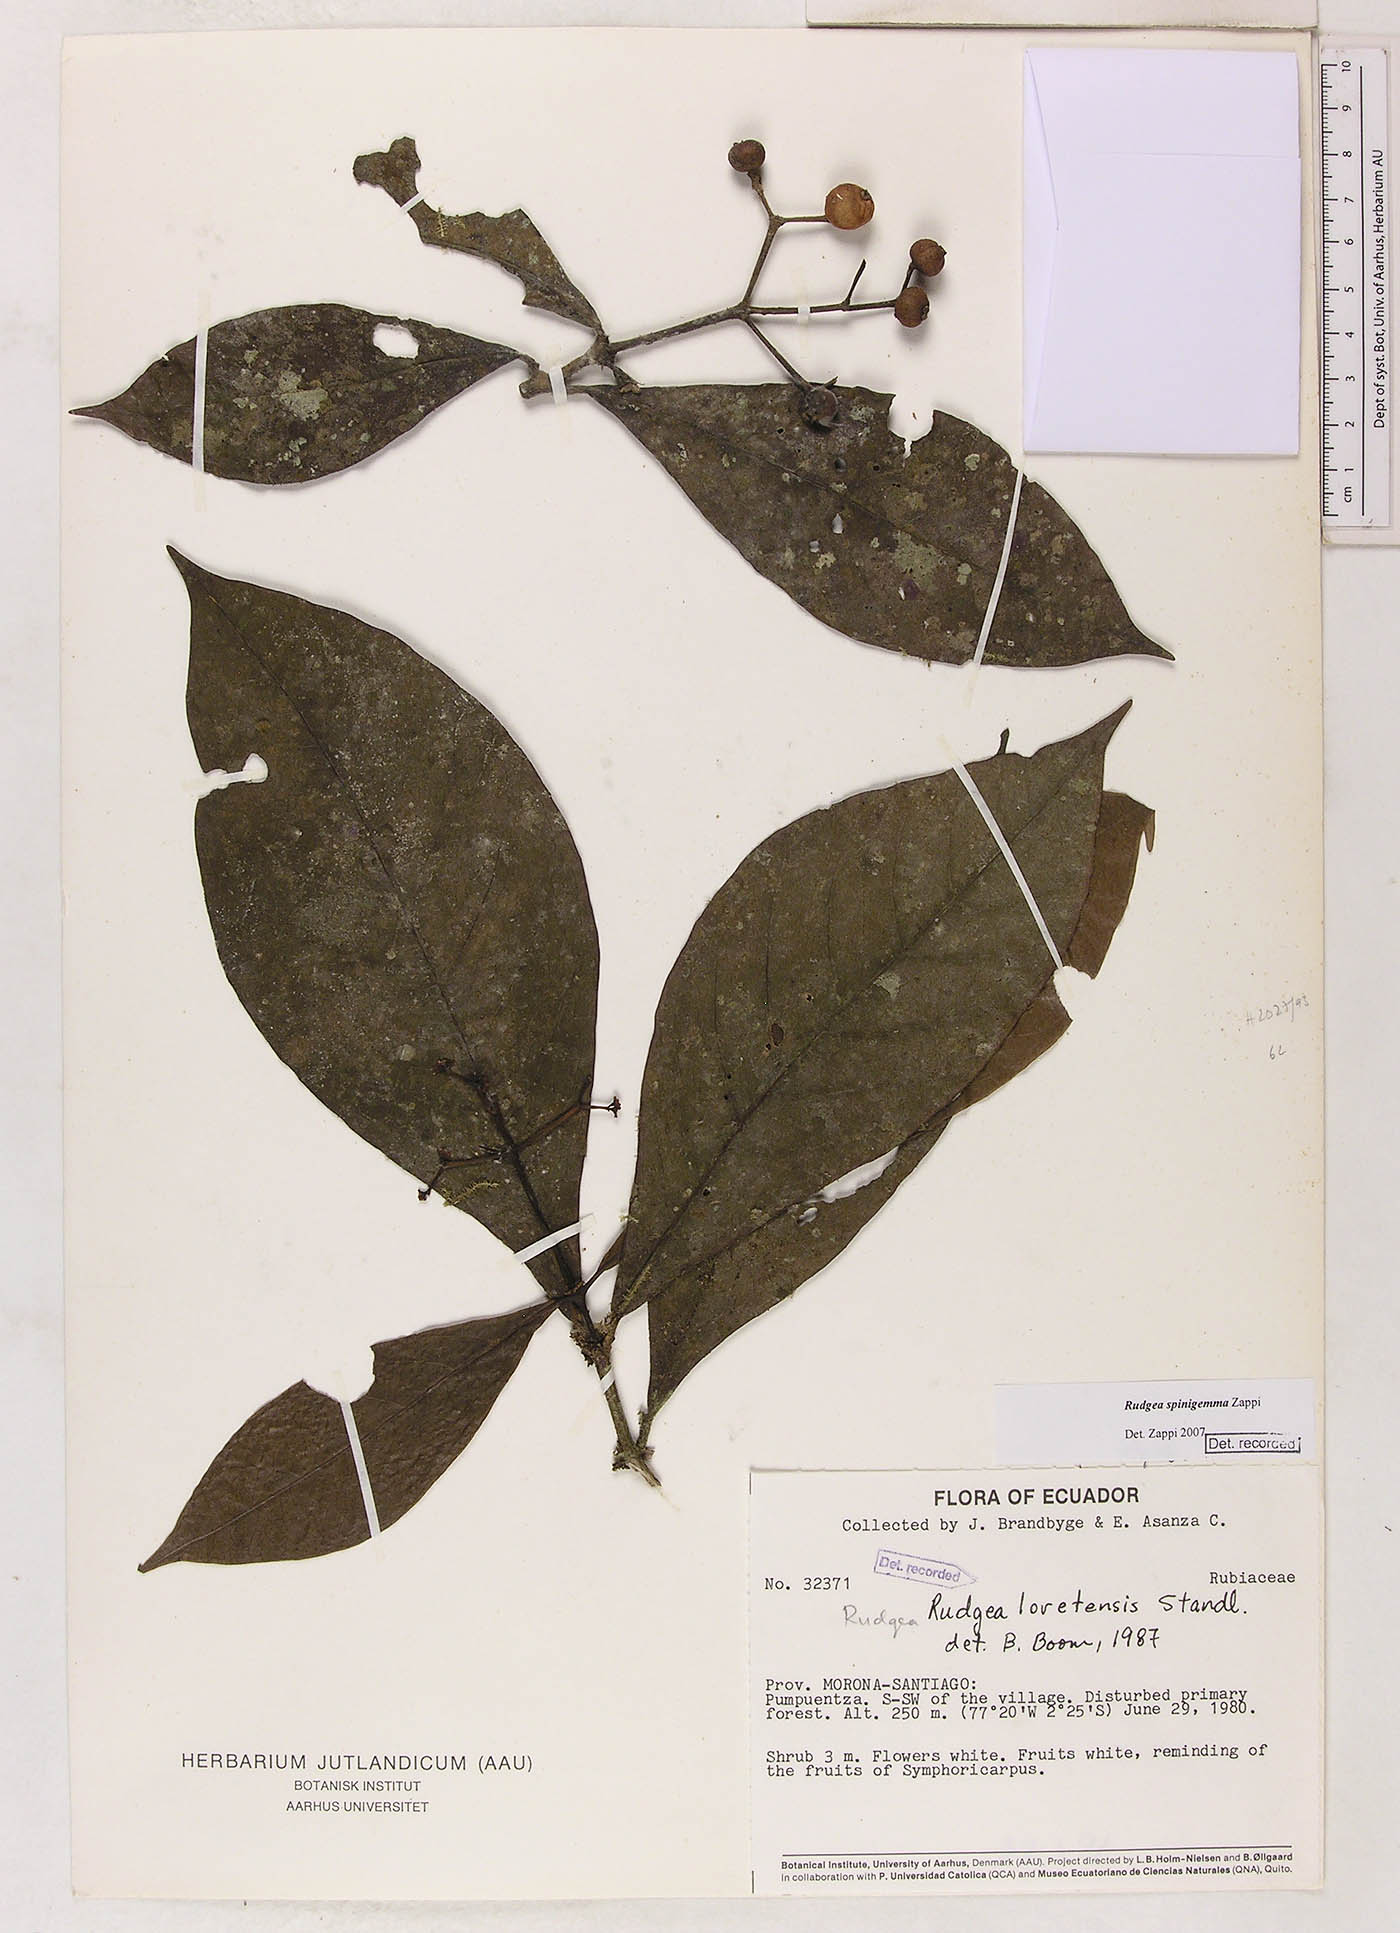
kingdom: Plantae
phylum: Tracheophyta
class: Magnoliopsida
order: Gentianales
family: Rubiaceae
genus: Rudgea
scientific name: Rudgea spinigemma
